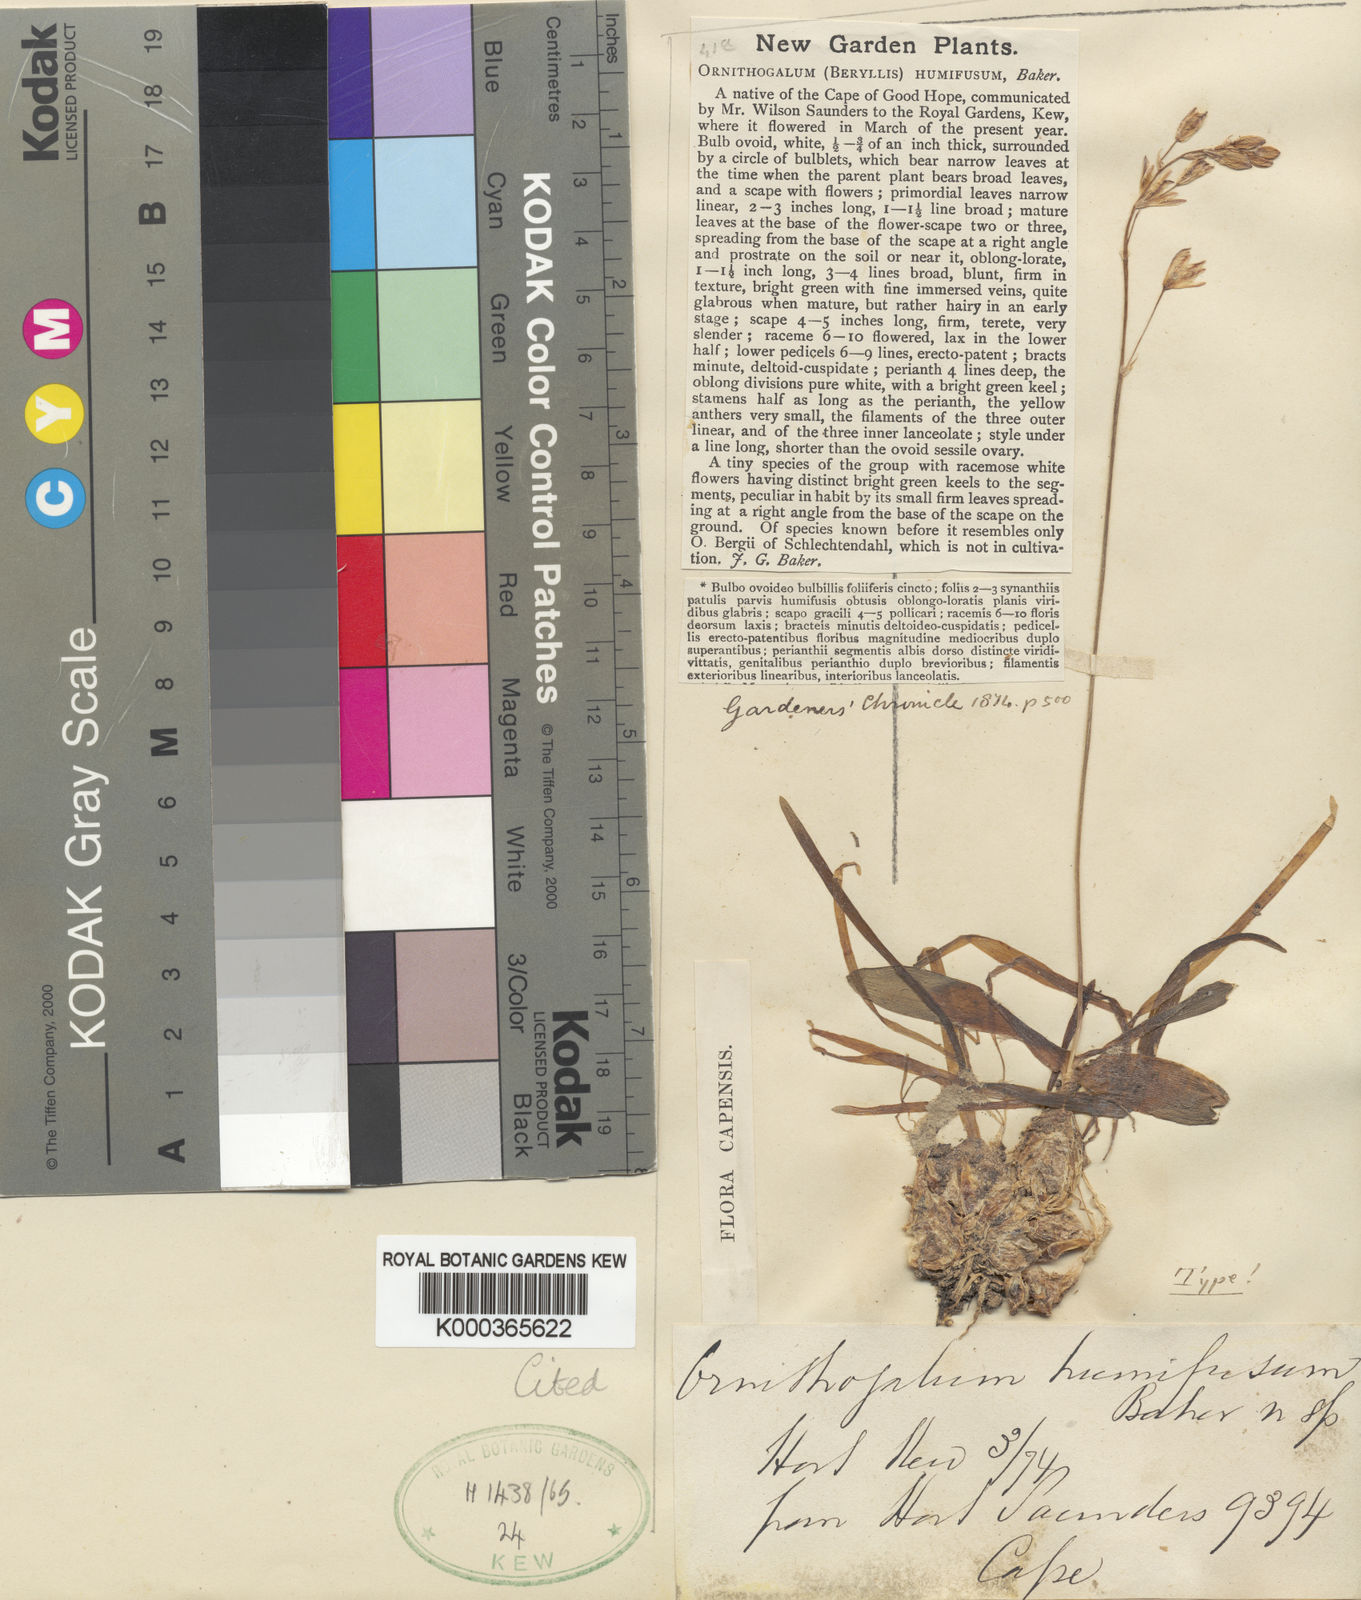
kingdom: Plantae
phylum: Tracheophyta
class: Liliopsida
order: Asparagales
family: Asparagaceae
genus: Ornithogalum
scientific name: Ornithogalum graminifolium
